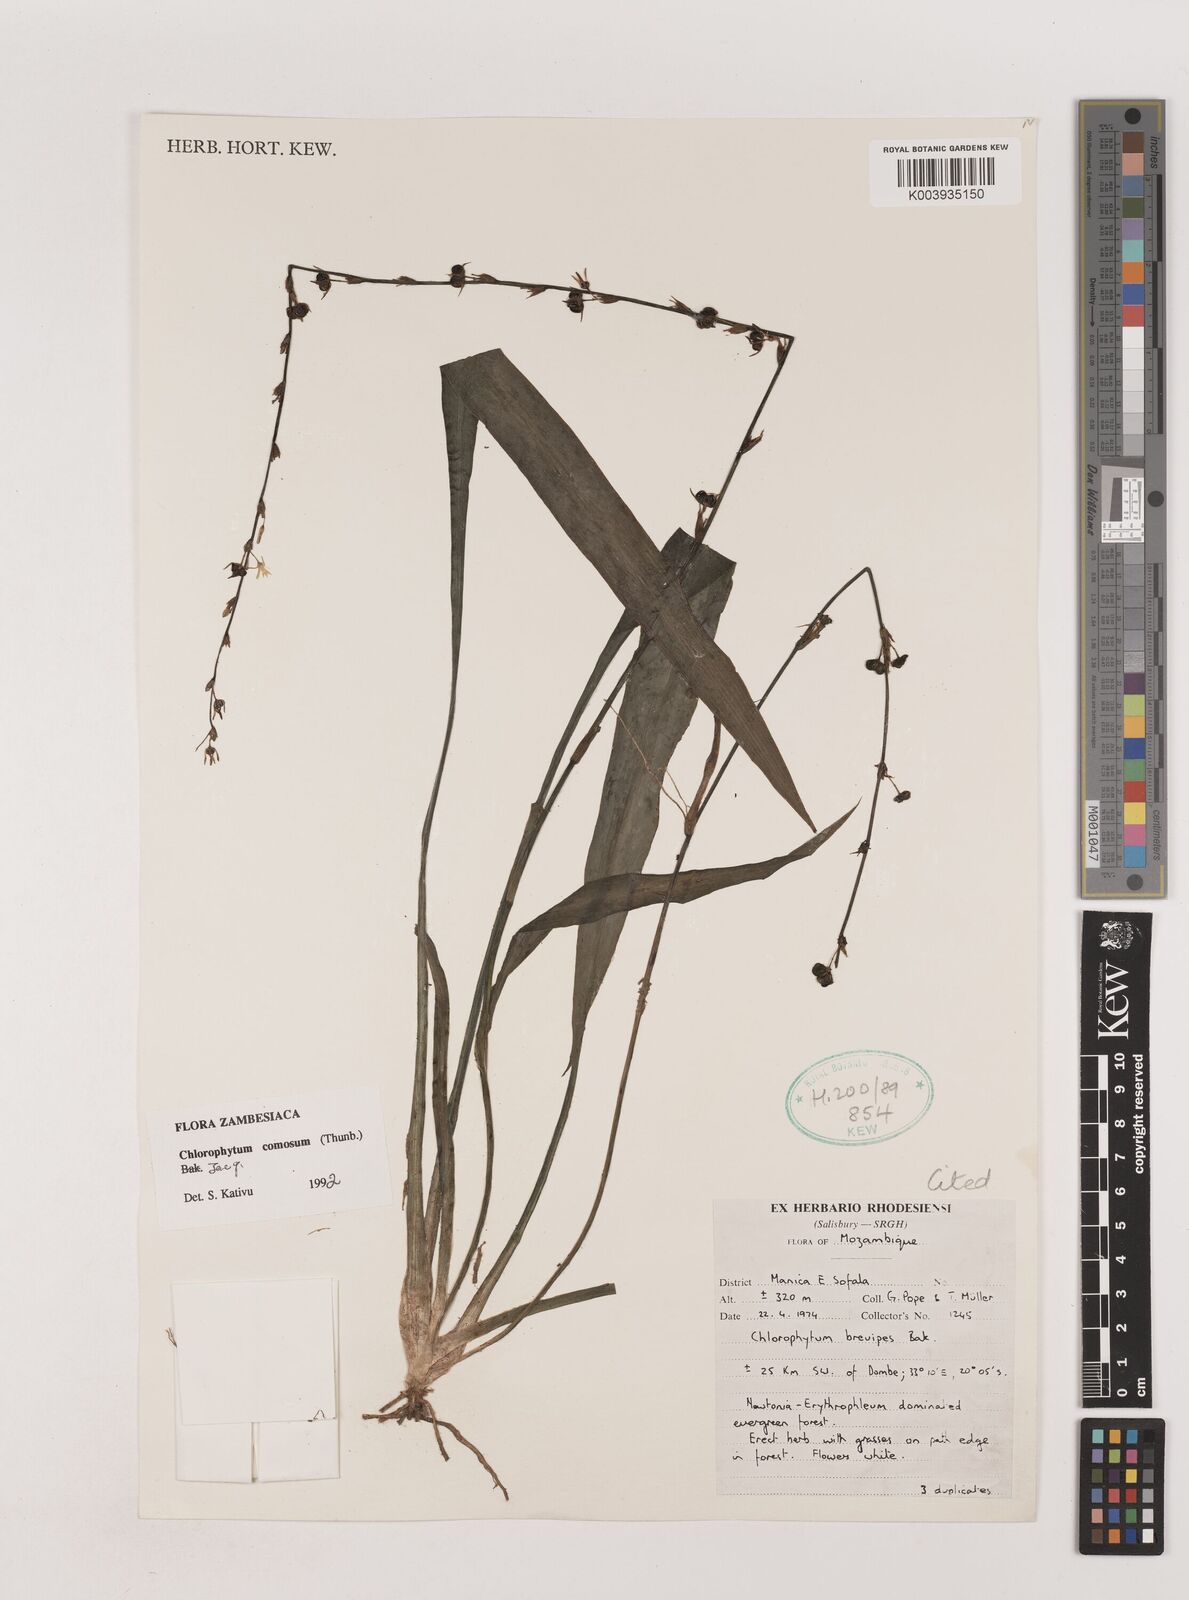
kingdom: Plantae
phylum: Tracheophyta
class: Liliopsida
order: Asparagales
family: Asparagaceae
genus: Chlorophytum
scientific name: Chlorophytum comosum
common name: Spider plant
